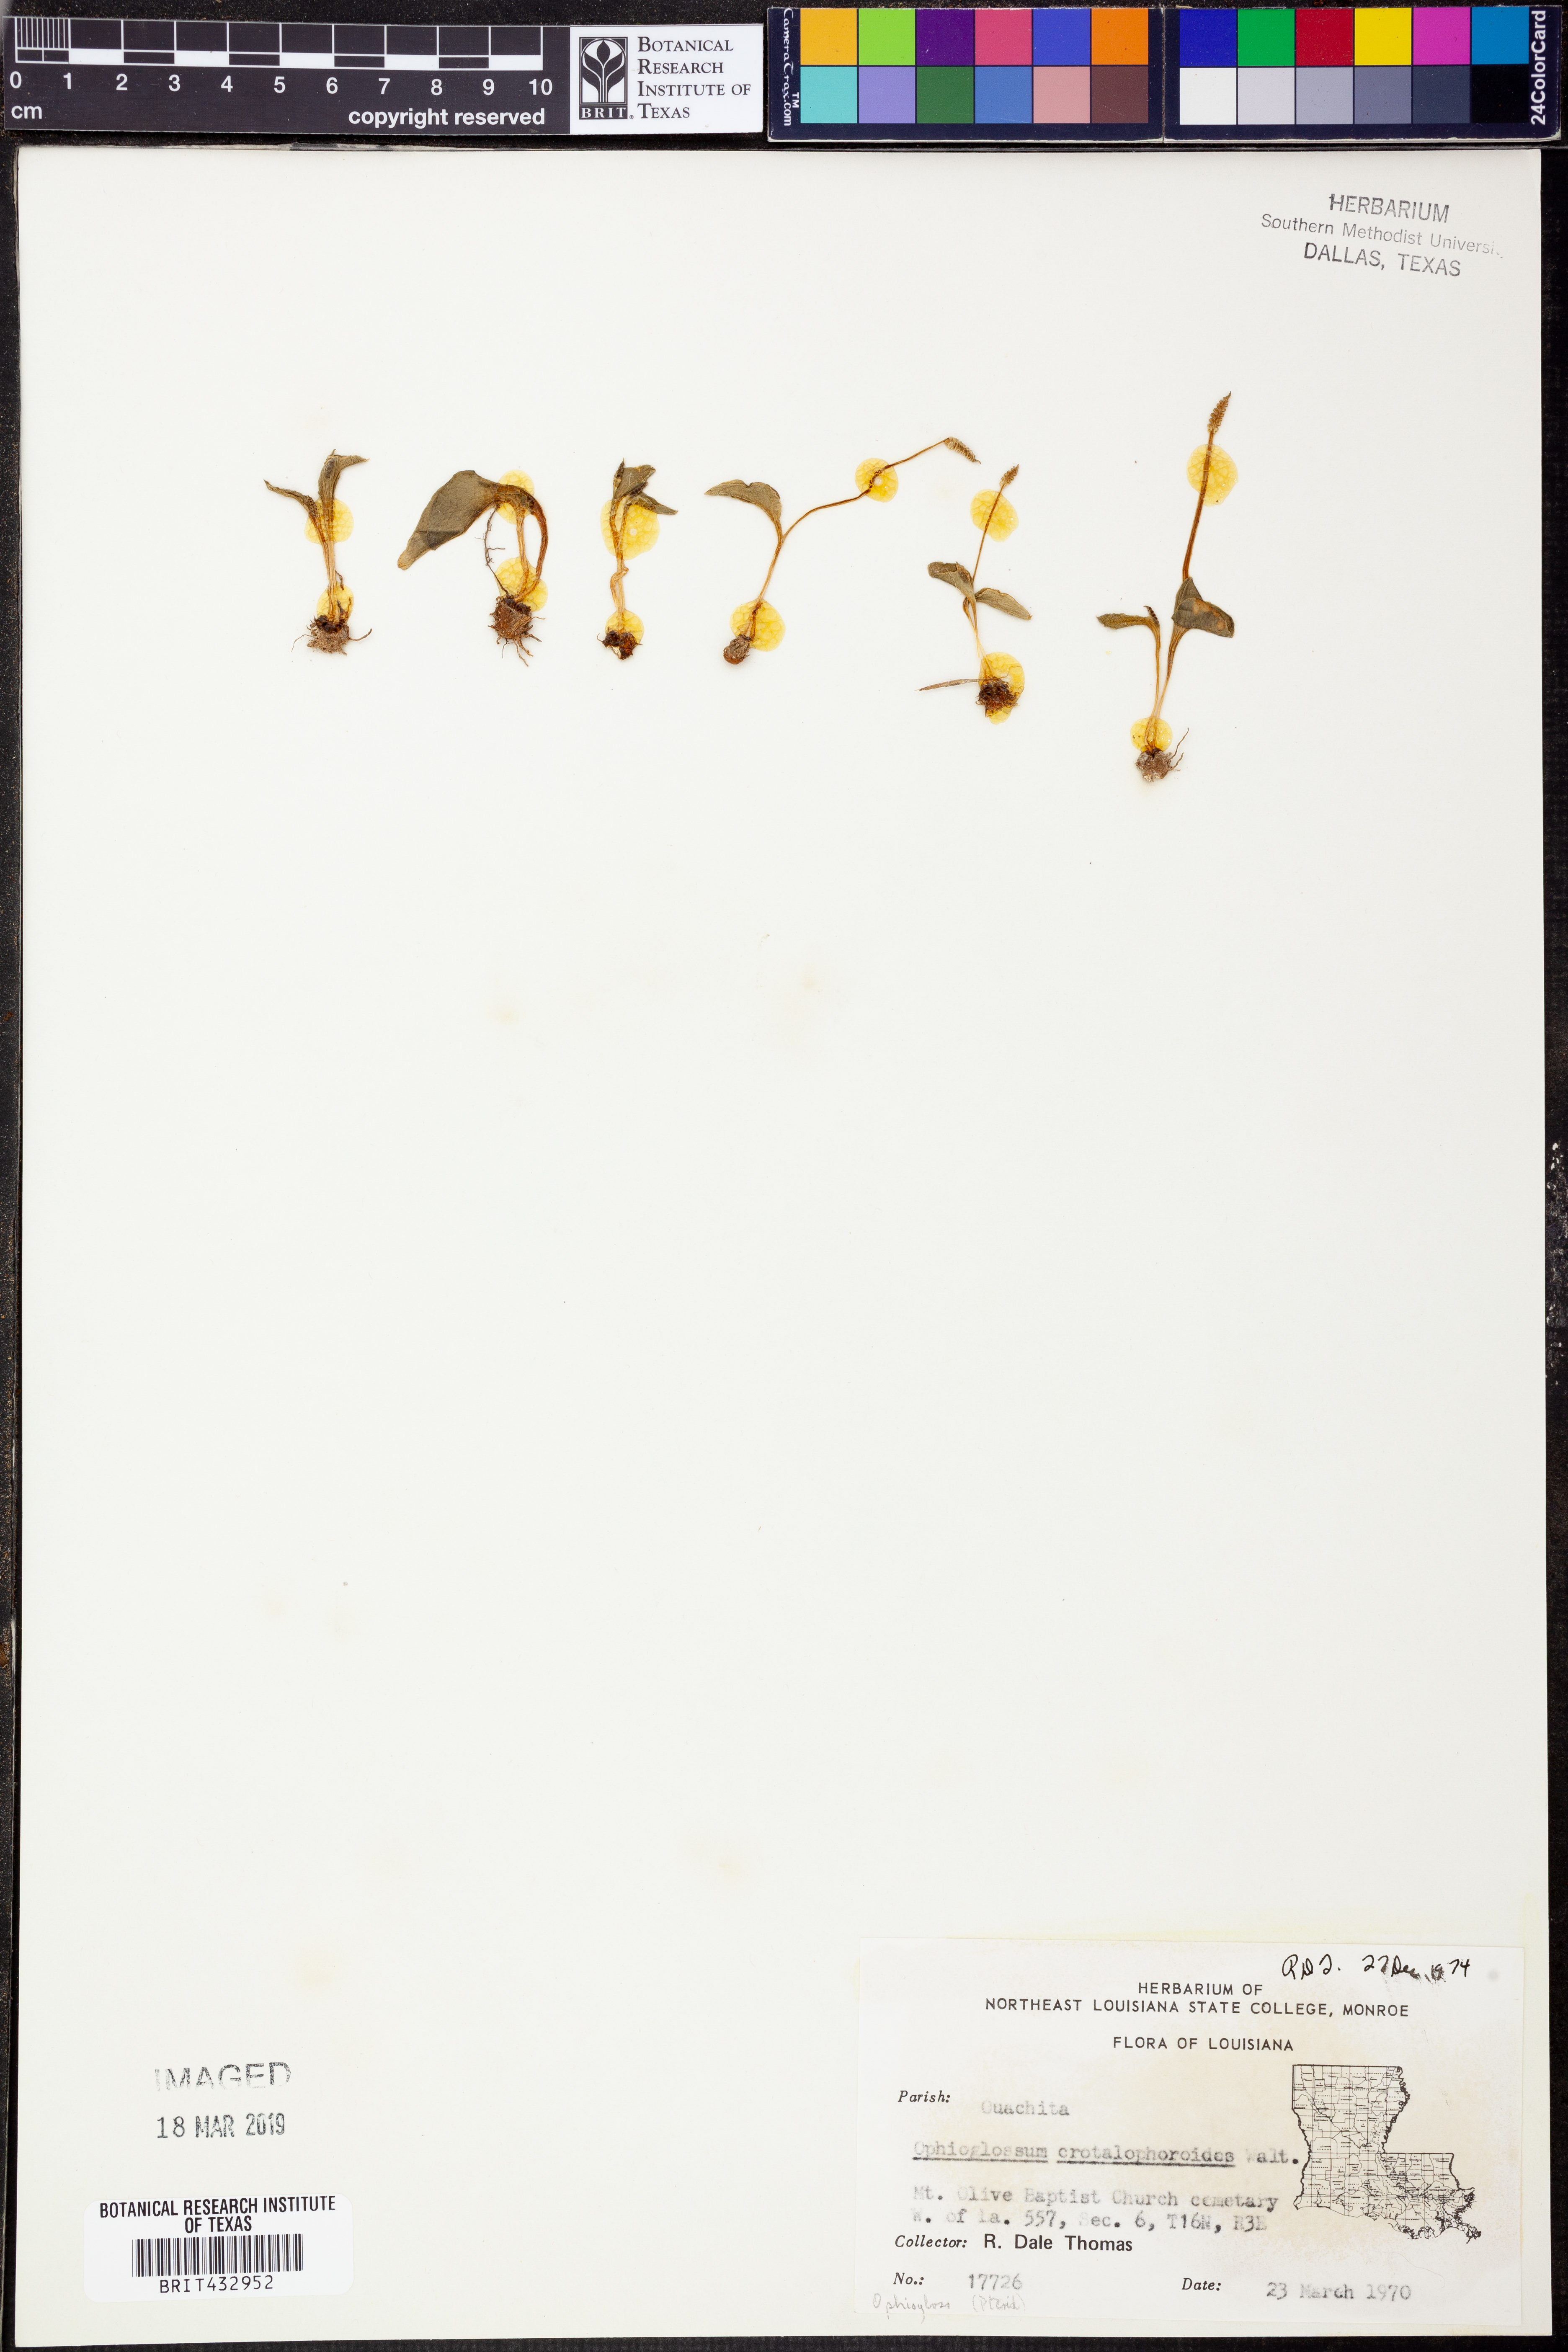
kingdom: Plantae
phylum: Tracheophyta
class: Polypodiopsida
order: Ophioglossales
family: Ophioglossaceae
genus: Ophioglossum
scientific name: Ophioglossum crotalophoroides
